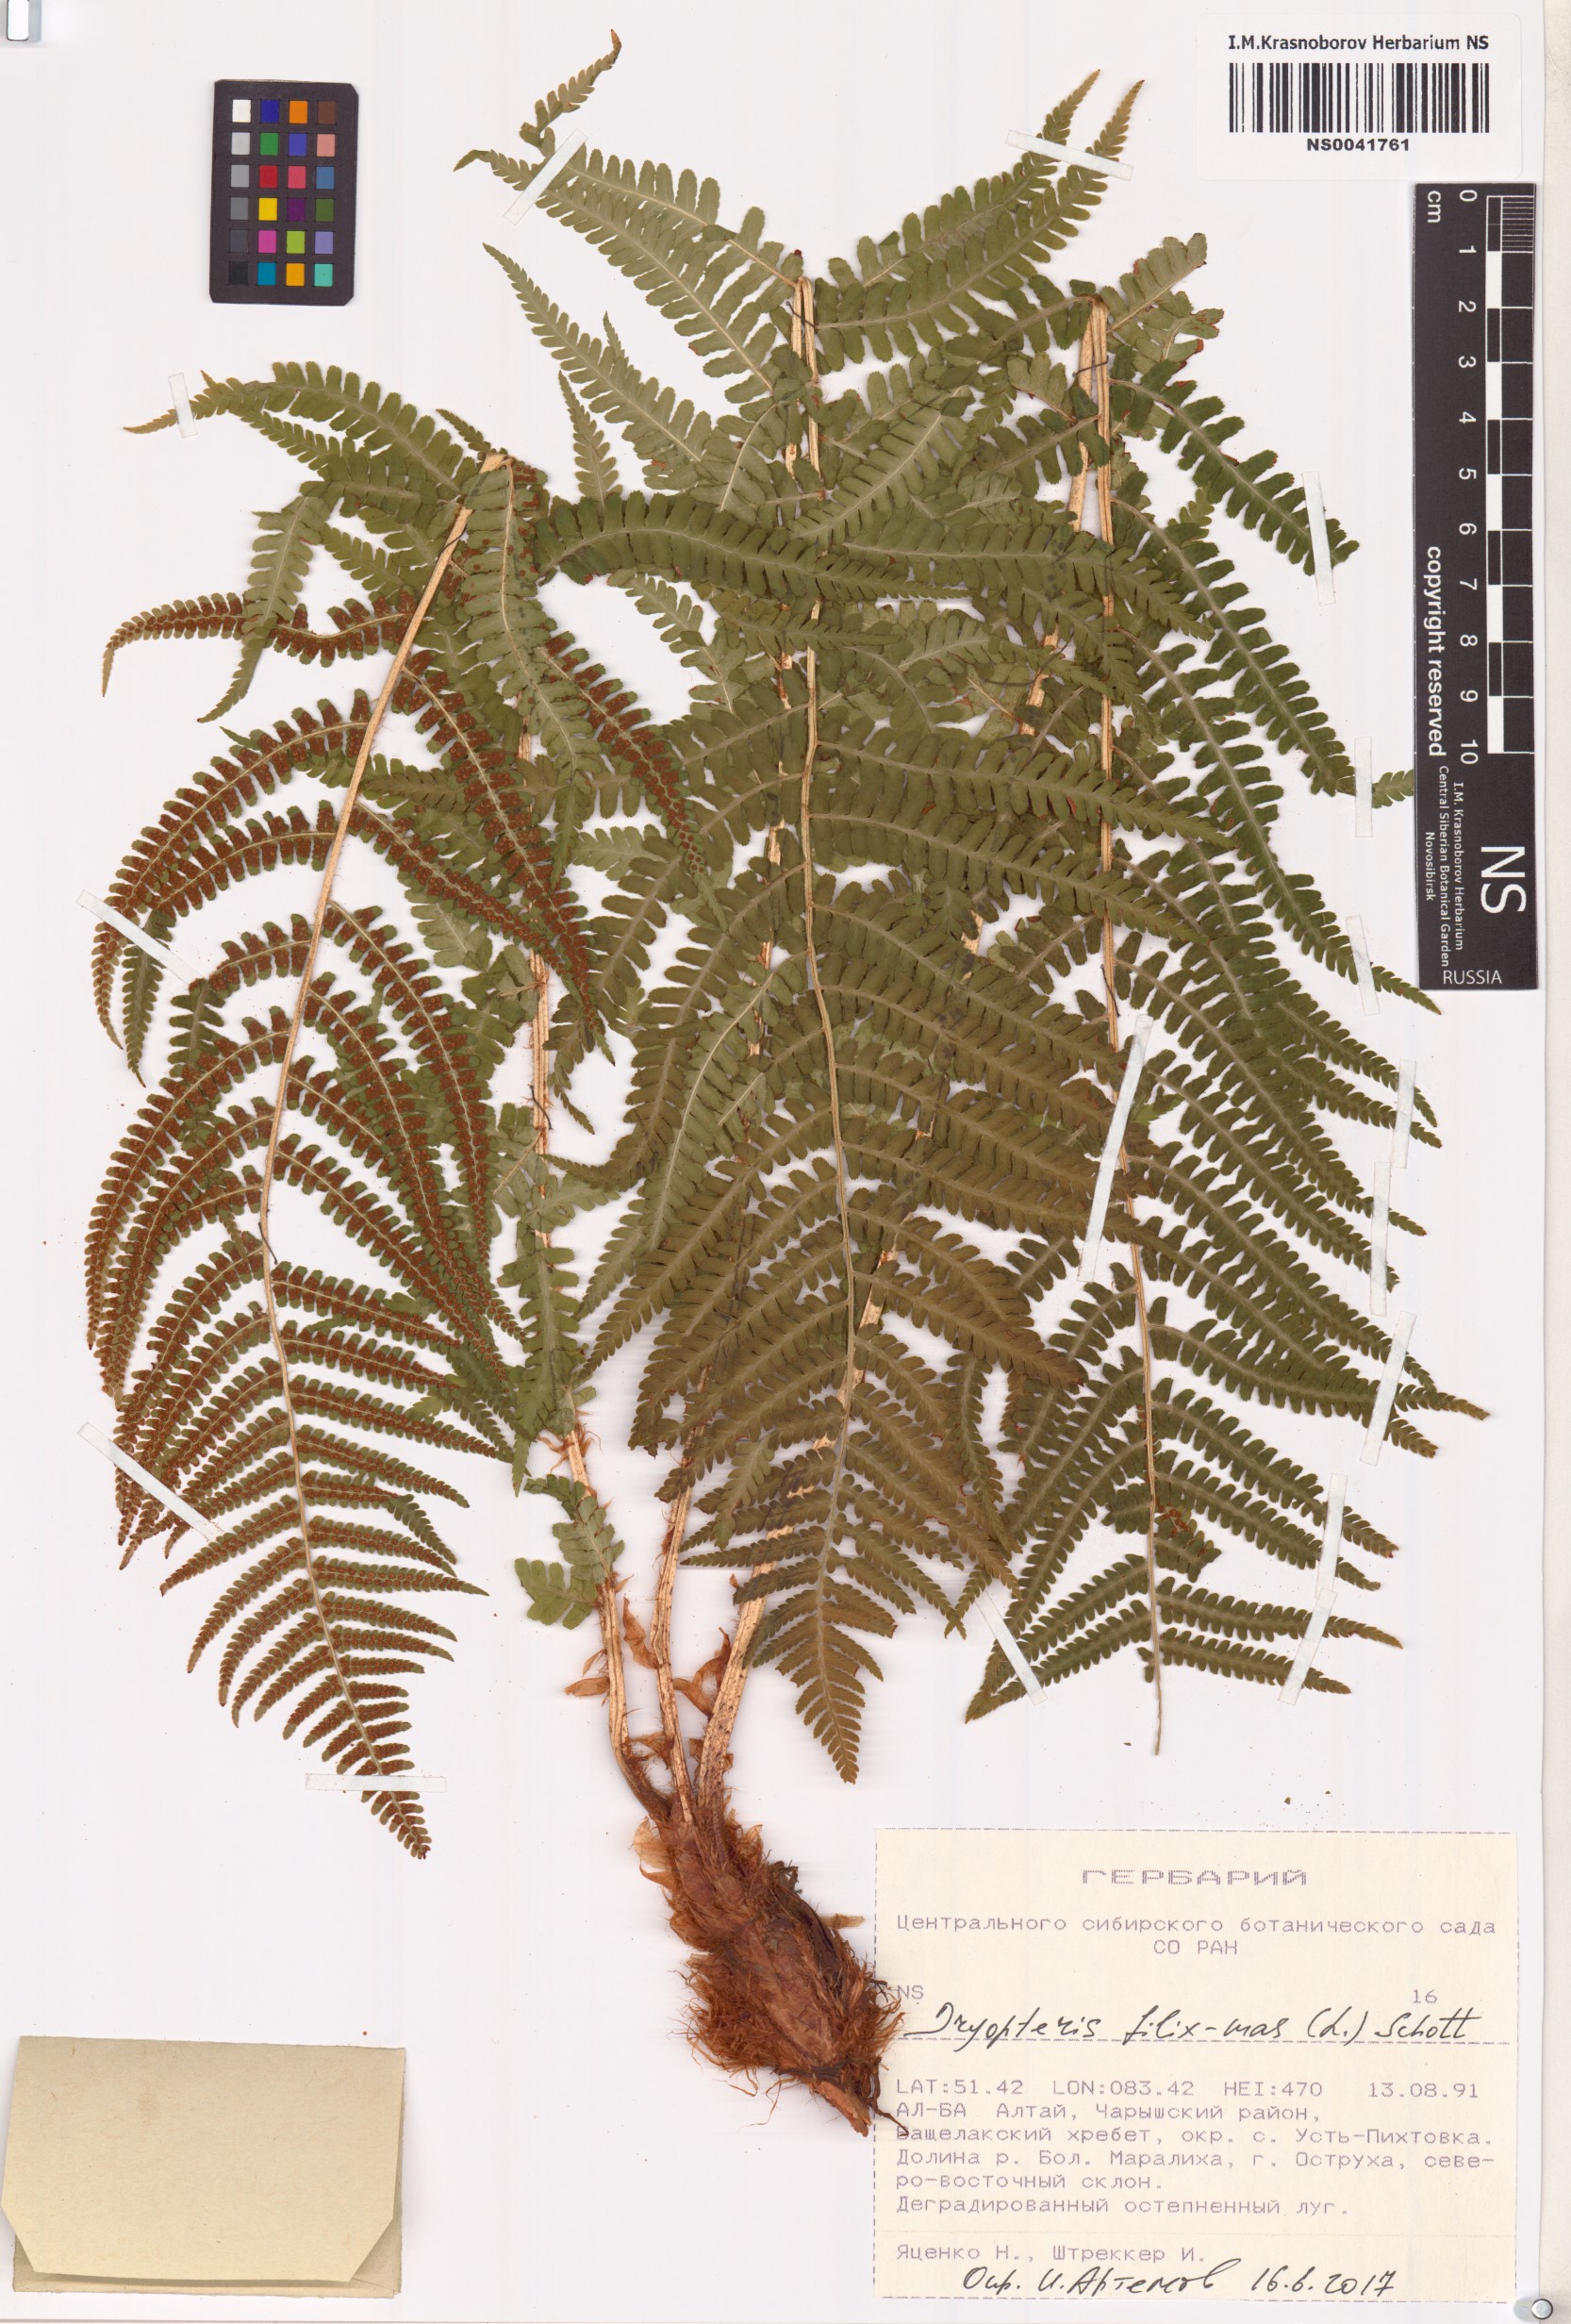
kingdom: Plantae
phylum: Tracheophyta
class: Polypodiopsida
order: Polypodiales
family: Dryopteridaceae
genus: Dryopteris
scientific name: Dryopteris filix-mas
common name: Male fern
